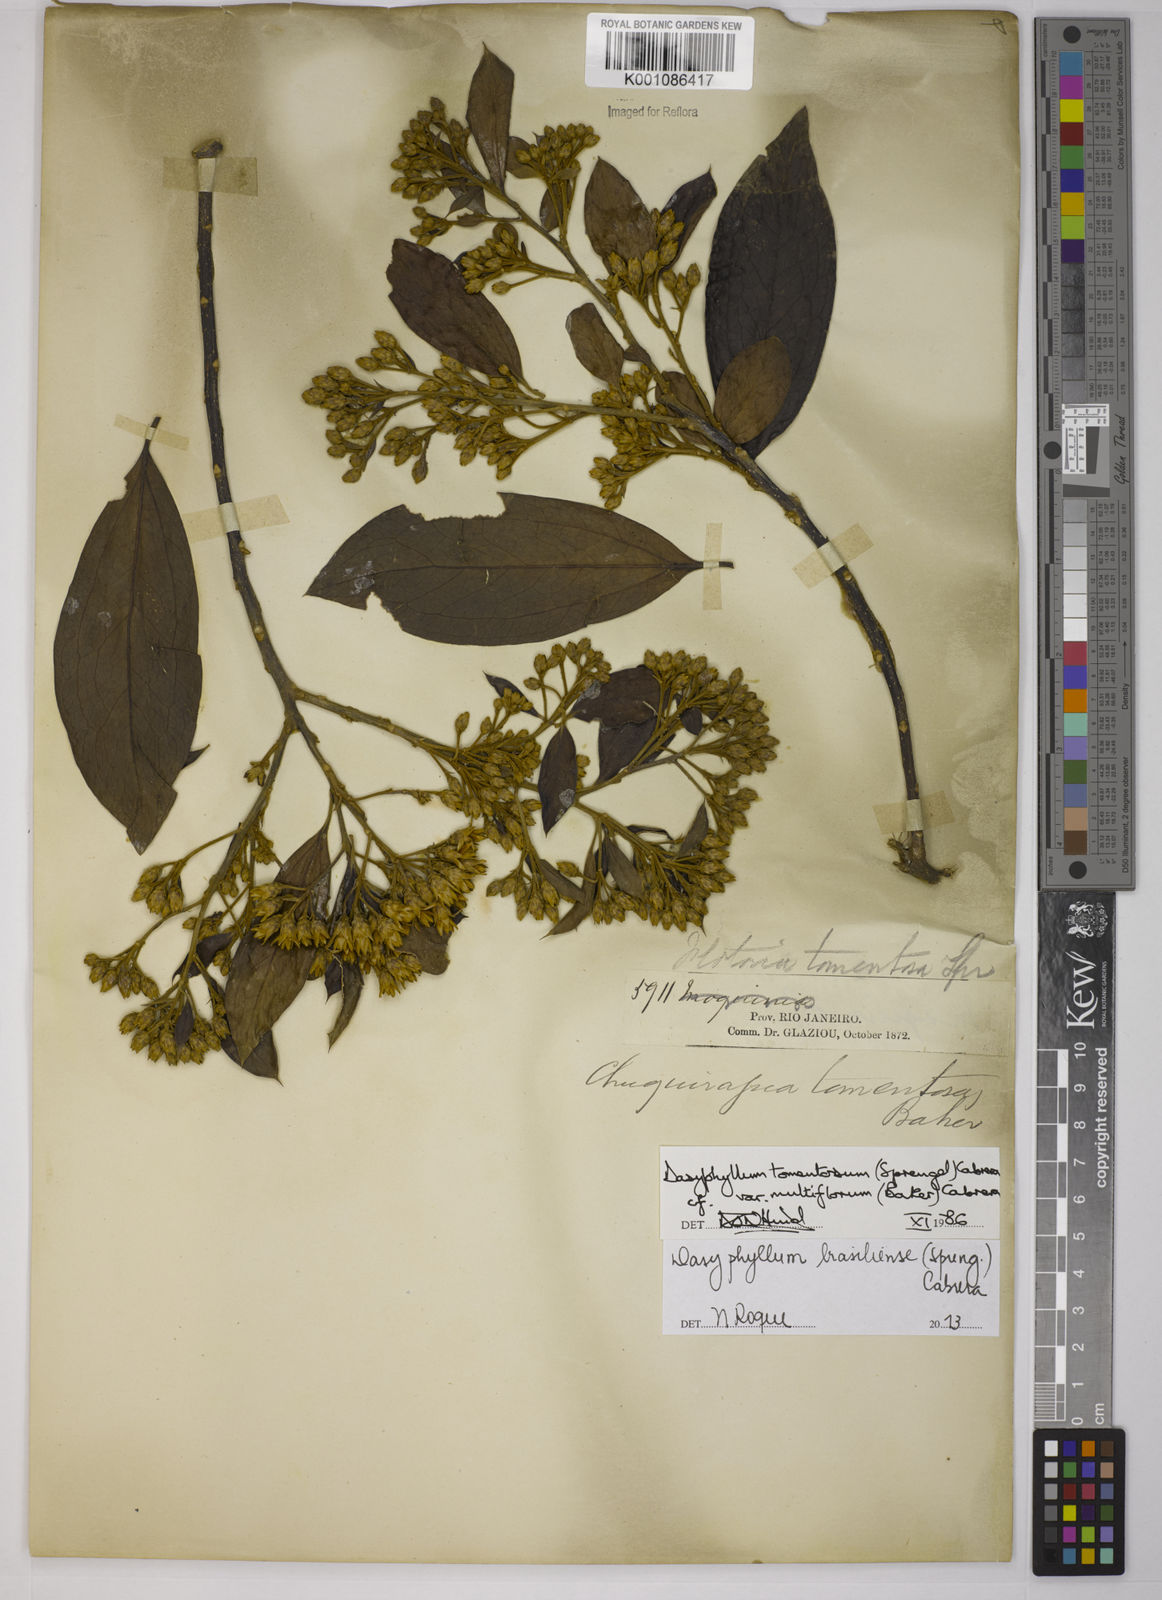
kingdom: Plantae
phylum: Tracheophyta
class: Magnoliopsida
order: Asterales
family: Asteraceae
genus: Dasyphyllum
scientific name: Dasyphyllum brasiliense
